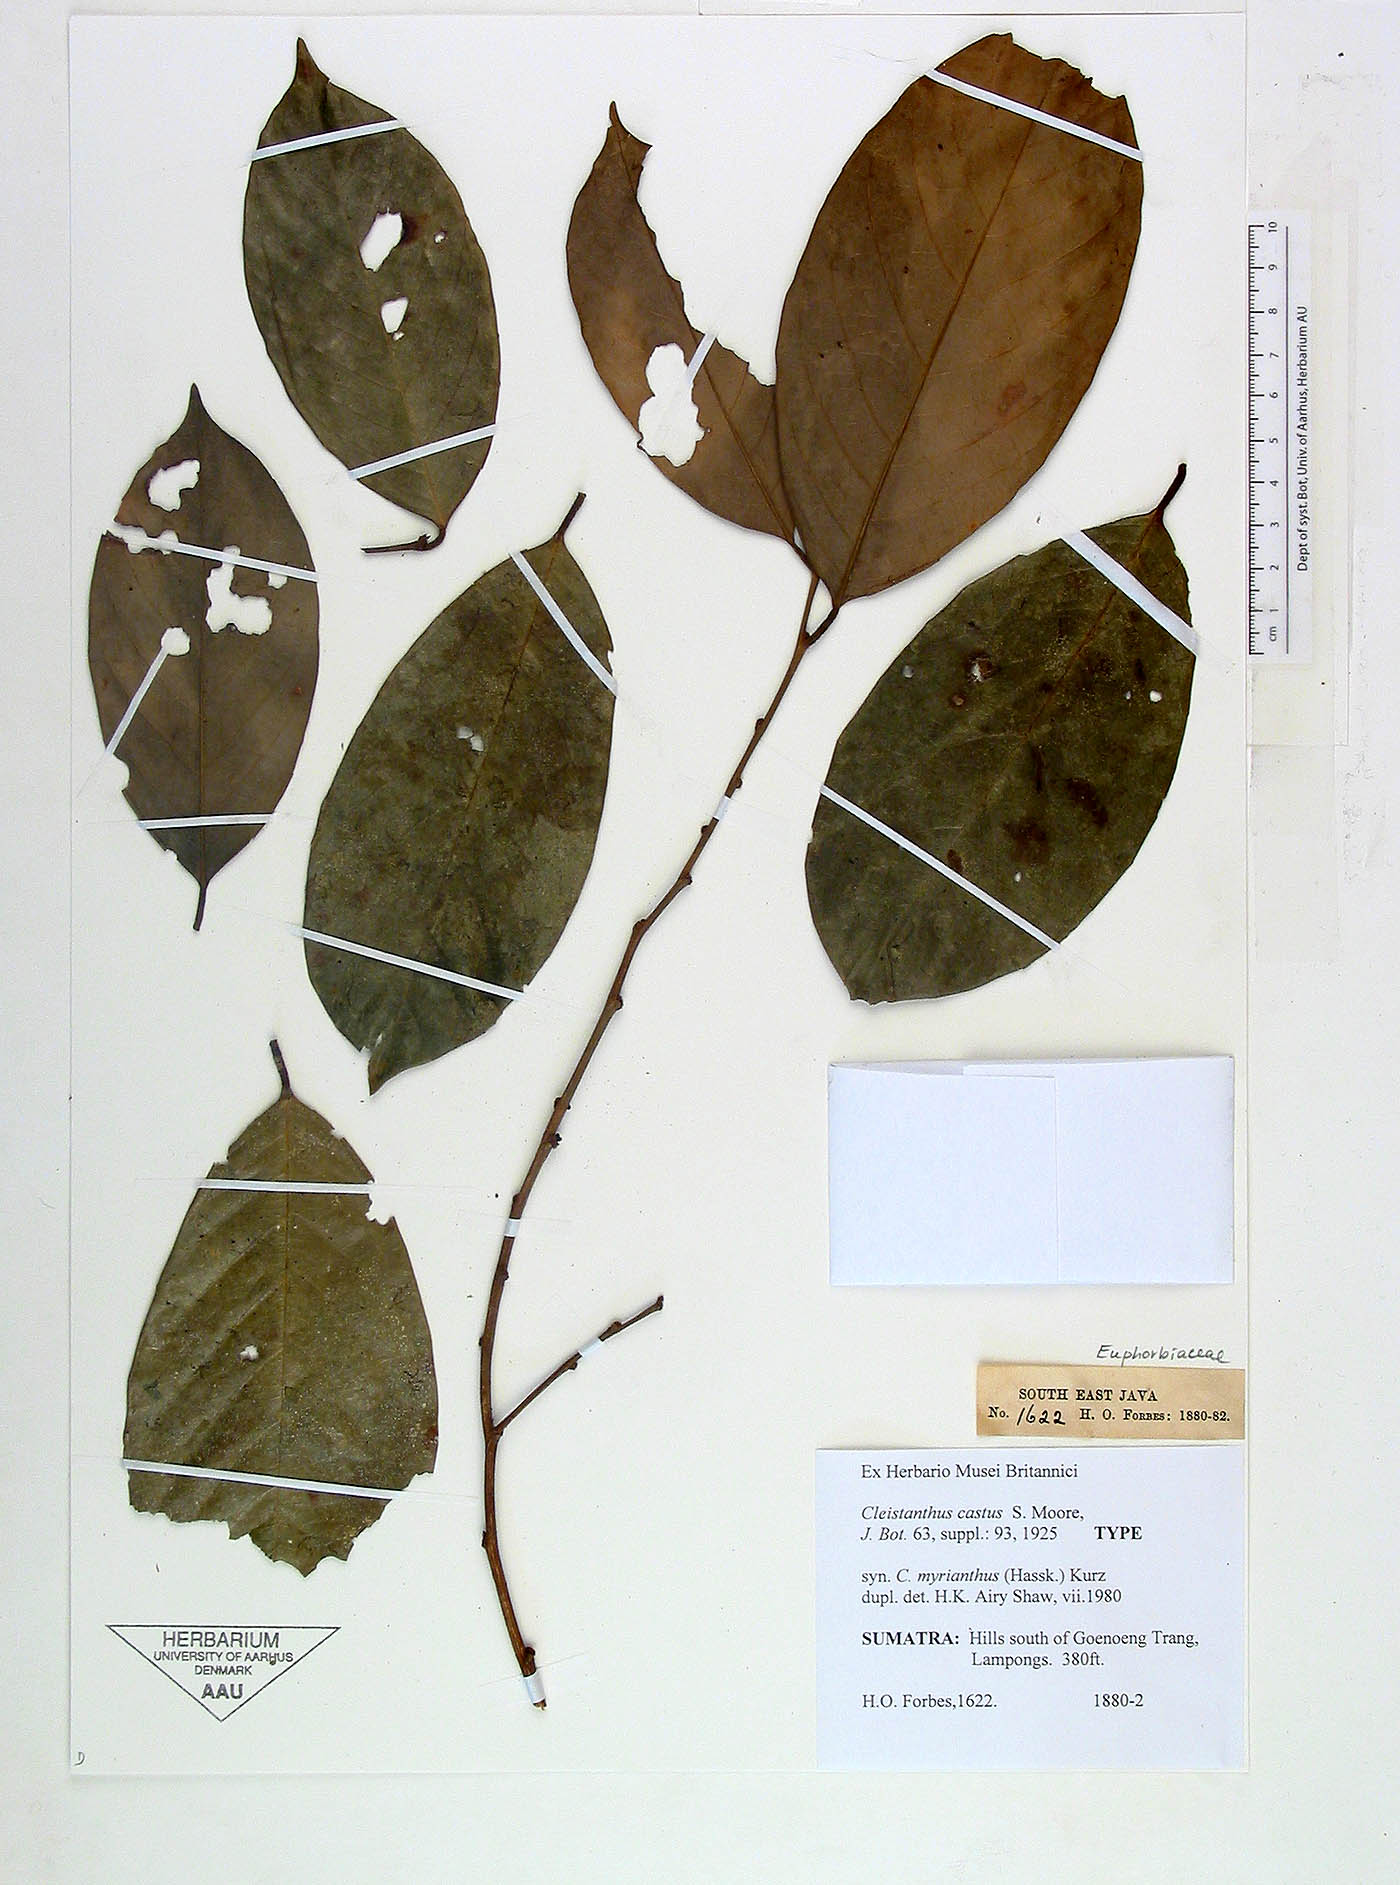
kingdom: Plantae
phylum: Tracheophyta
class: Magnoliopsida
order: Malpighiales
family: Phyllanthaceae
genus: Cleistanthus
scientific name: Cleistanthus oblongifolius
